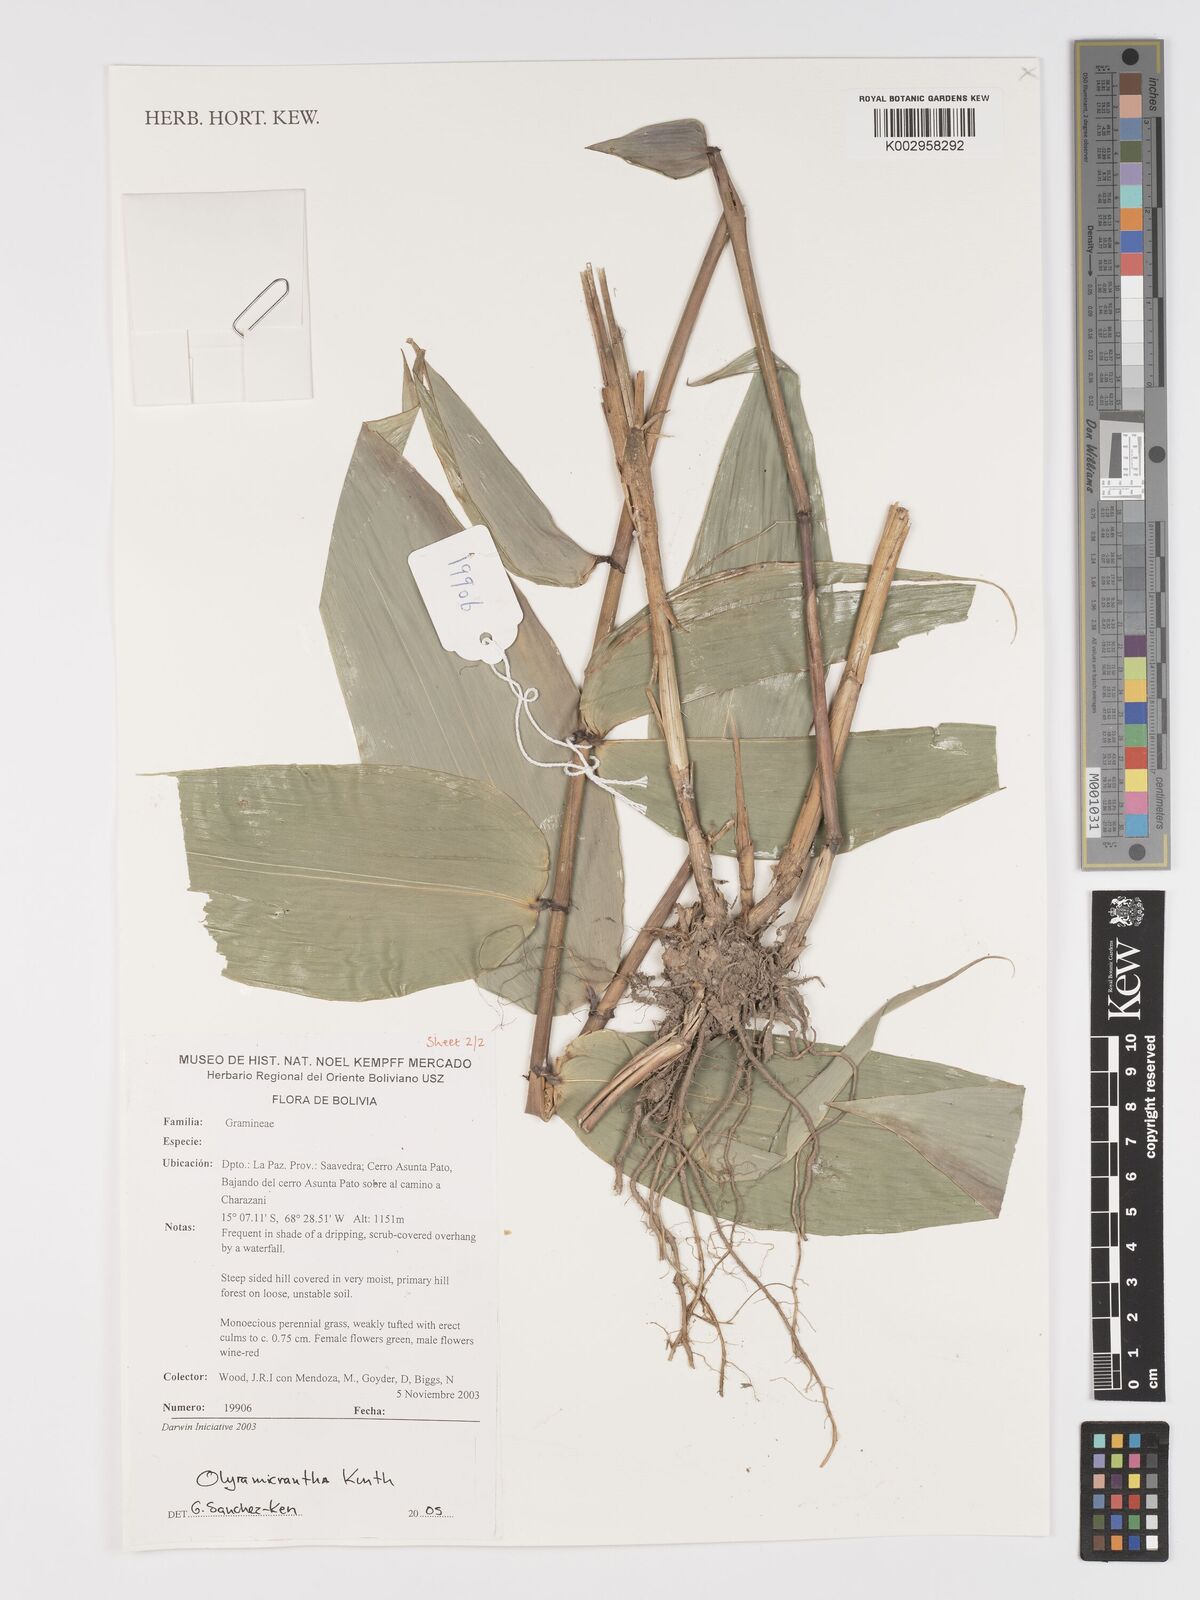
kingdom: Plantae
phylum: Tracheophyta
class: Liliopsida
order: Poales
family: Poaceae
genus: Taquara
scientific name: Taquara micrantha
